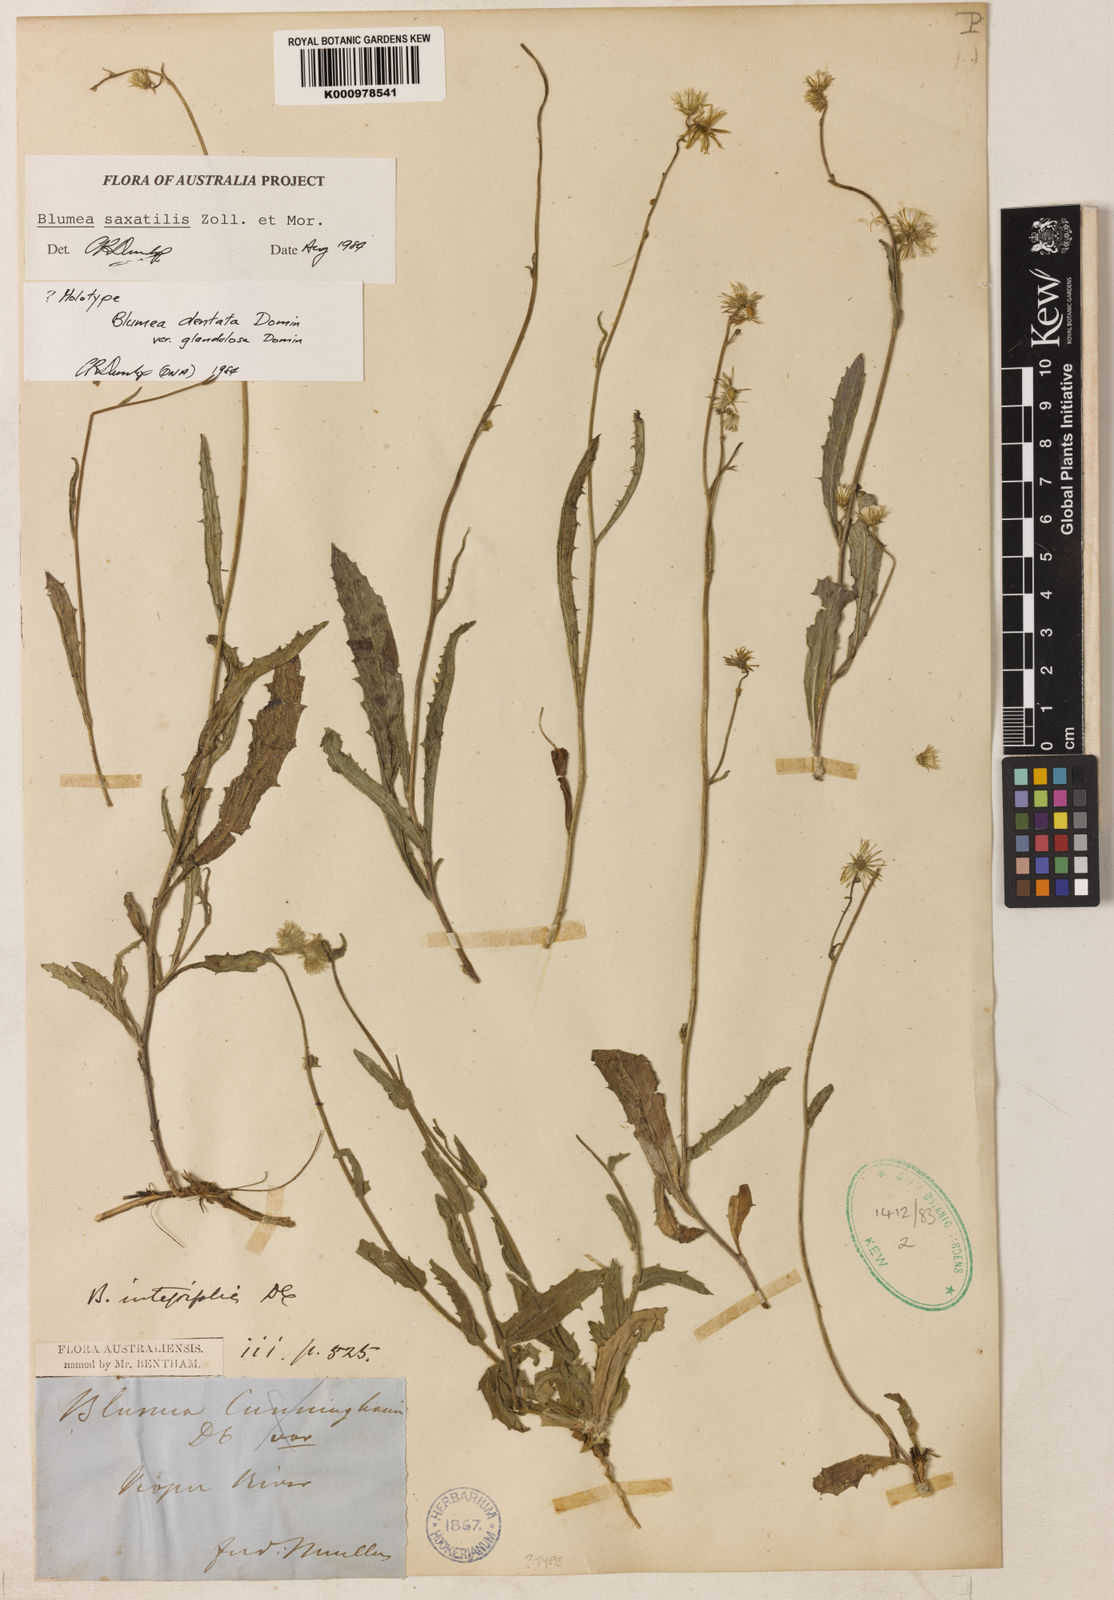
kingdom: Plantae
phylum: Tracheophyta
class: Magnoliopsida
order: Asterales
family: Asteraceae
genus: Blumea
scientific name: Blumea saxatilis
